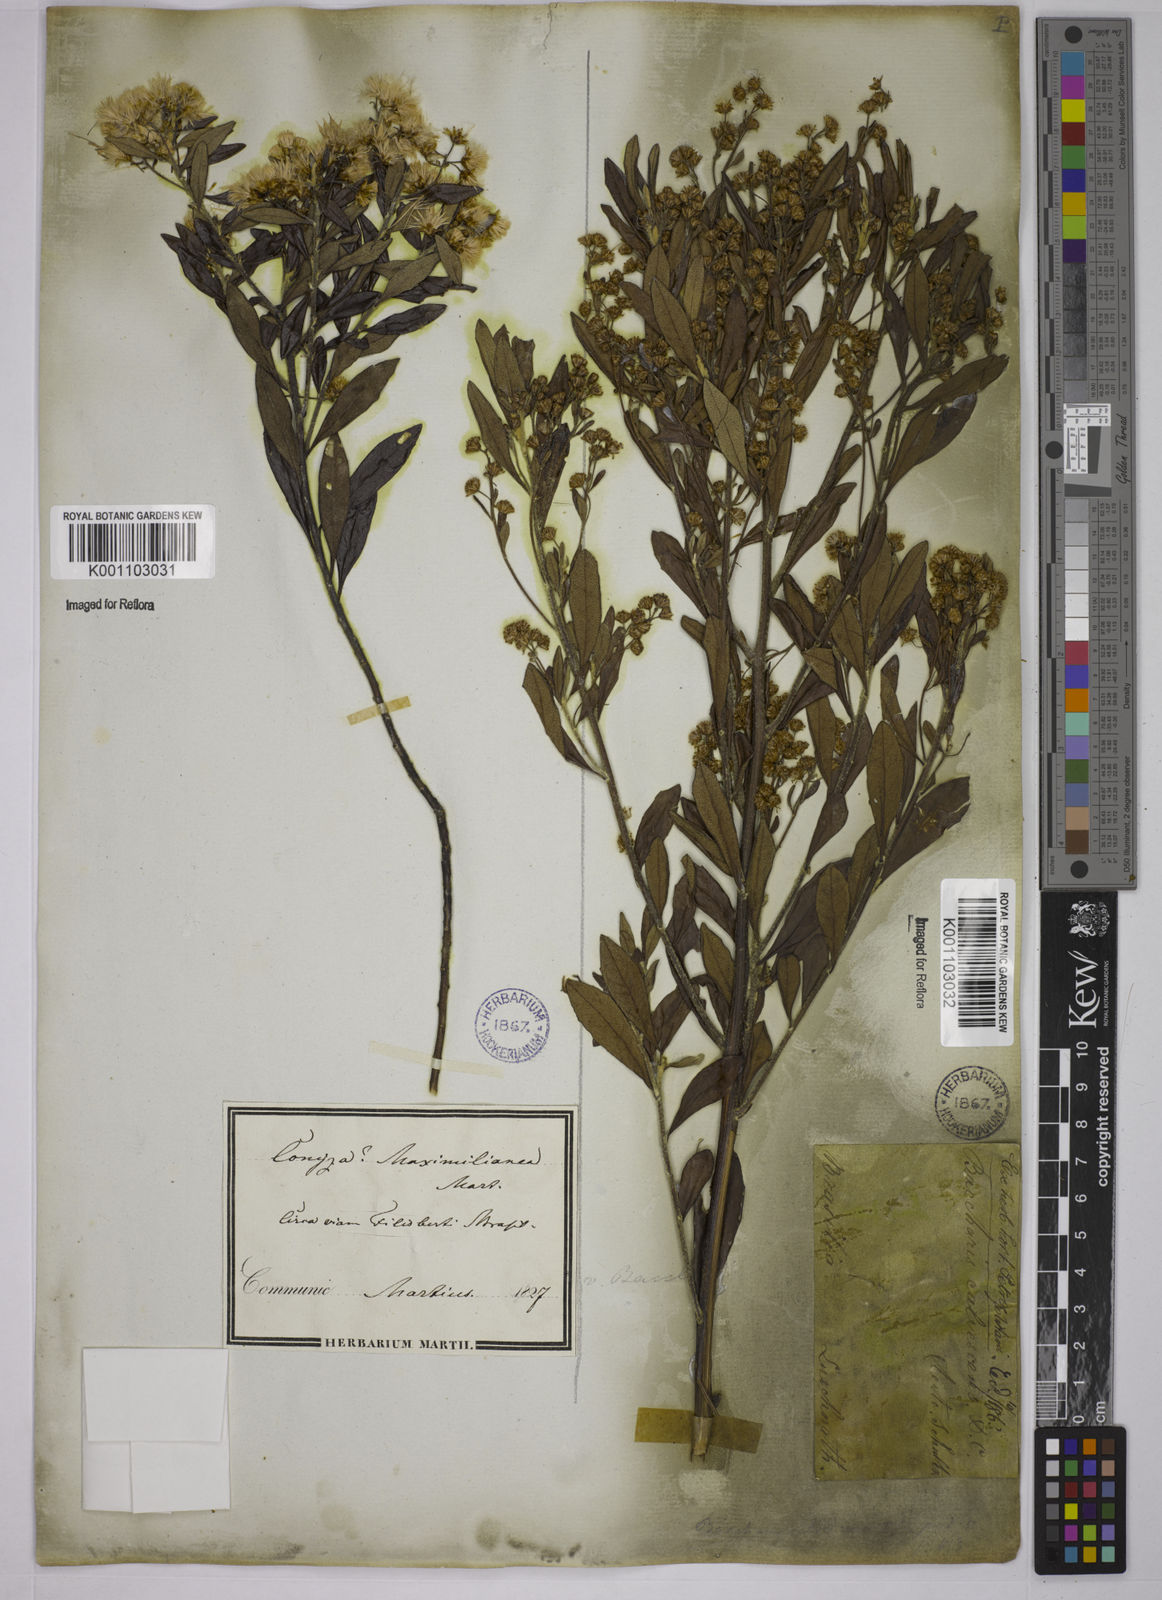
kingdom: Plantae
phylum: Tracheophyta
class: Magnoliopsida
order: Asterales
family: Asteraceae
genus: Baccharis
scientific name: Baccharis calvescens
